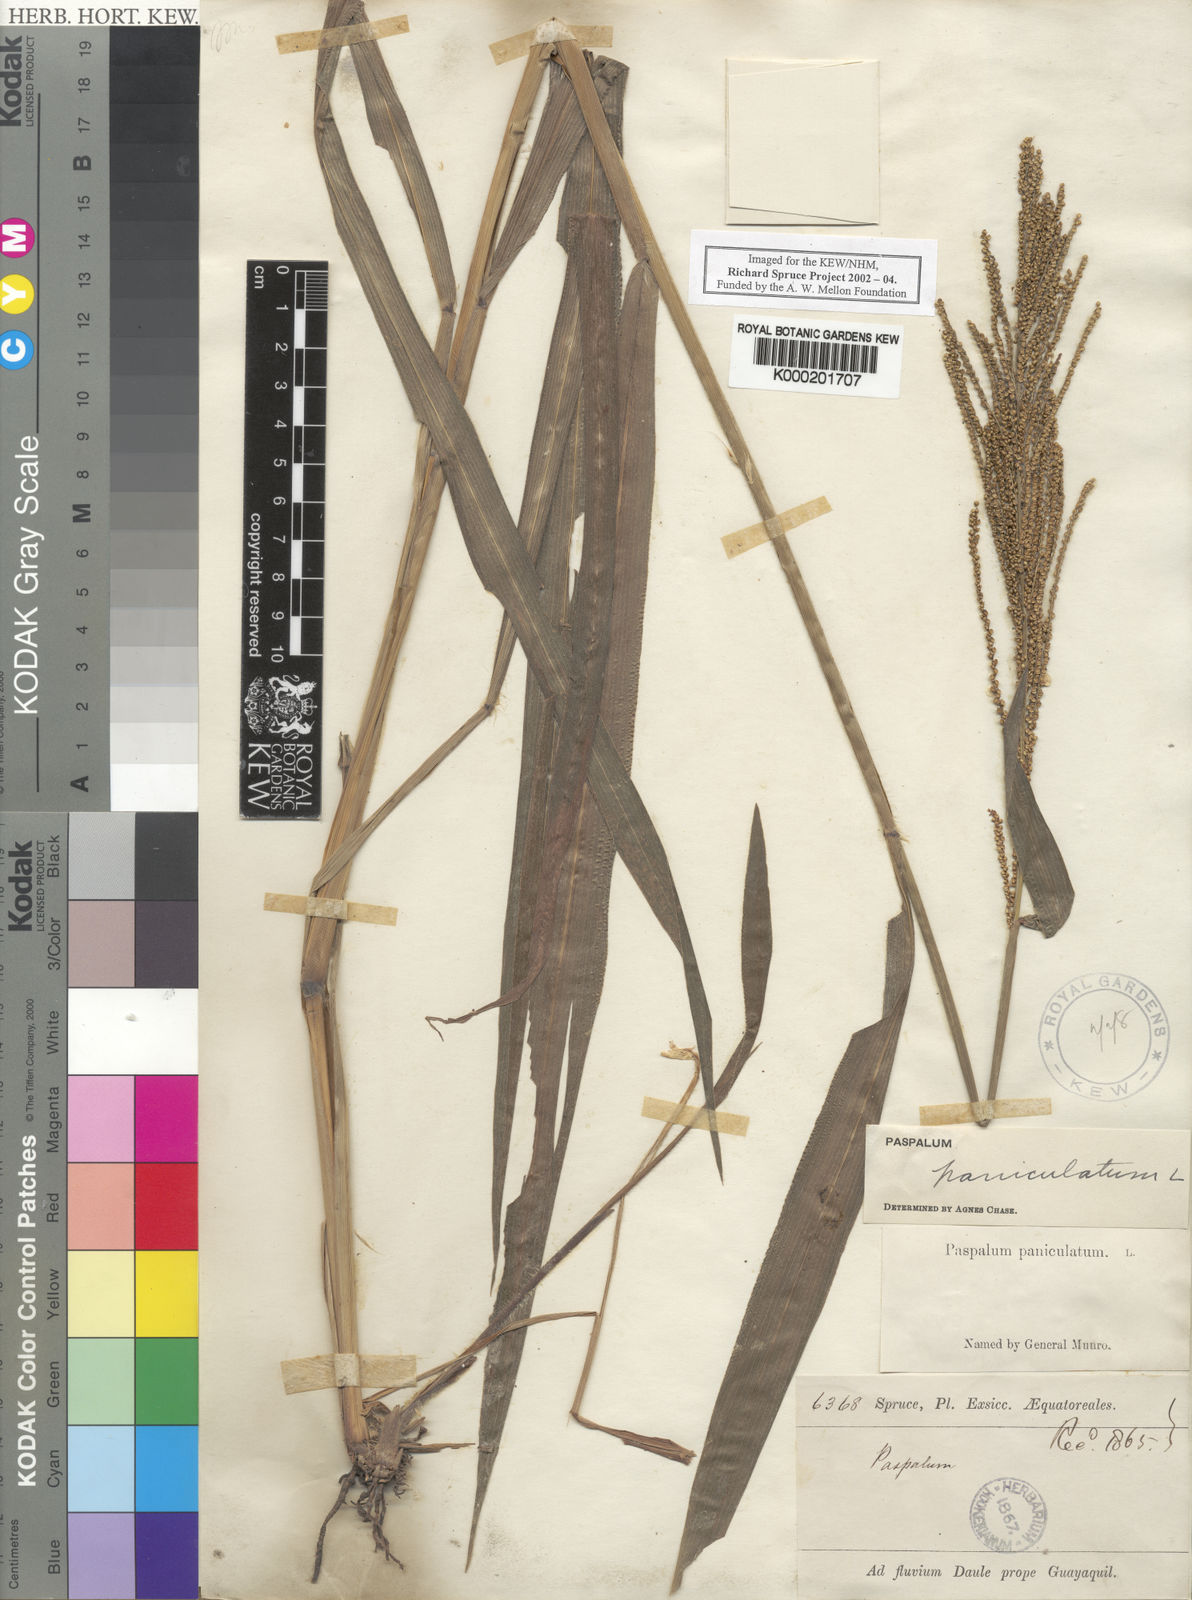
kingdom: Plantae
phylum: Tracheophyta
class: Liliopsida
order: Poales
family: Poaceae
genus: Paspalum
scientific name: Paspalum paniculatum
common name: Arrocillo
